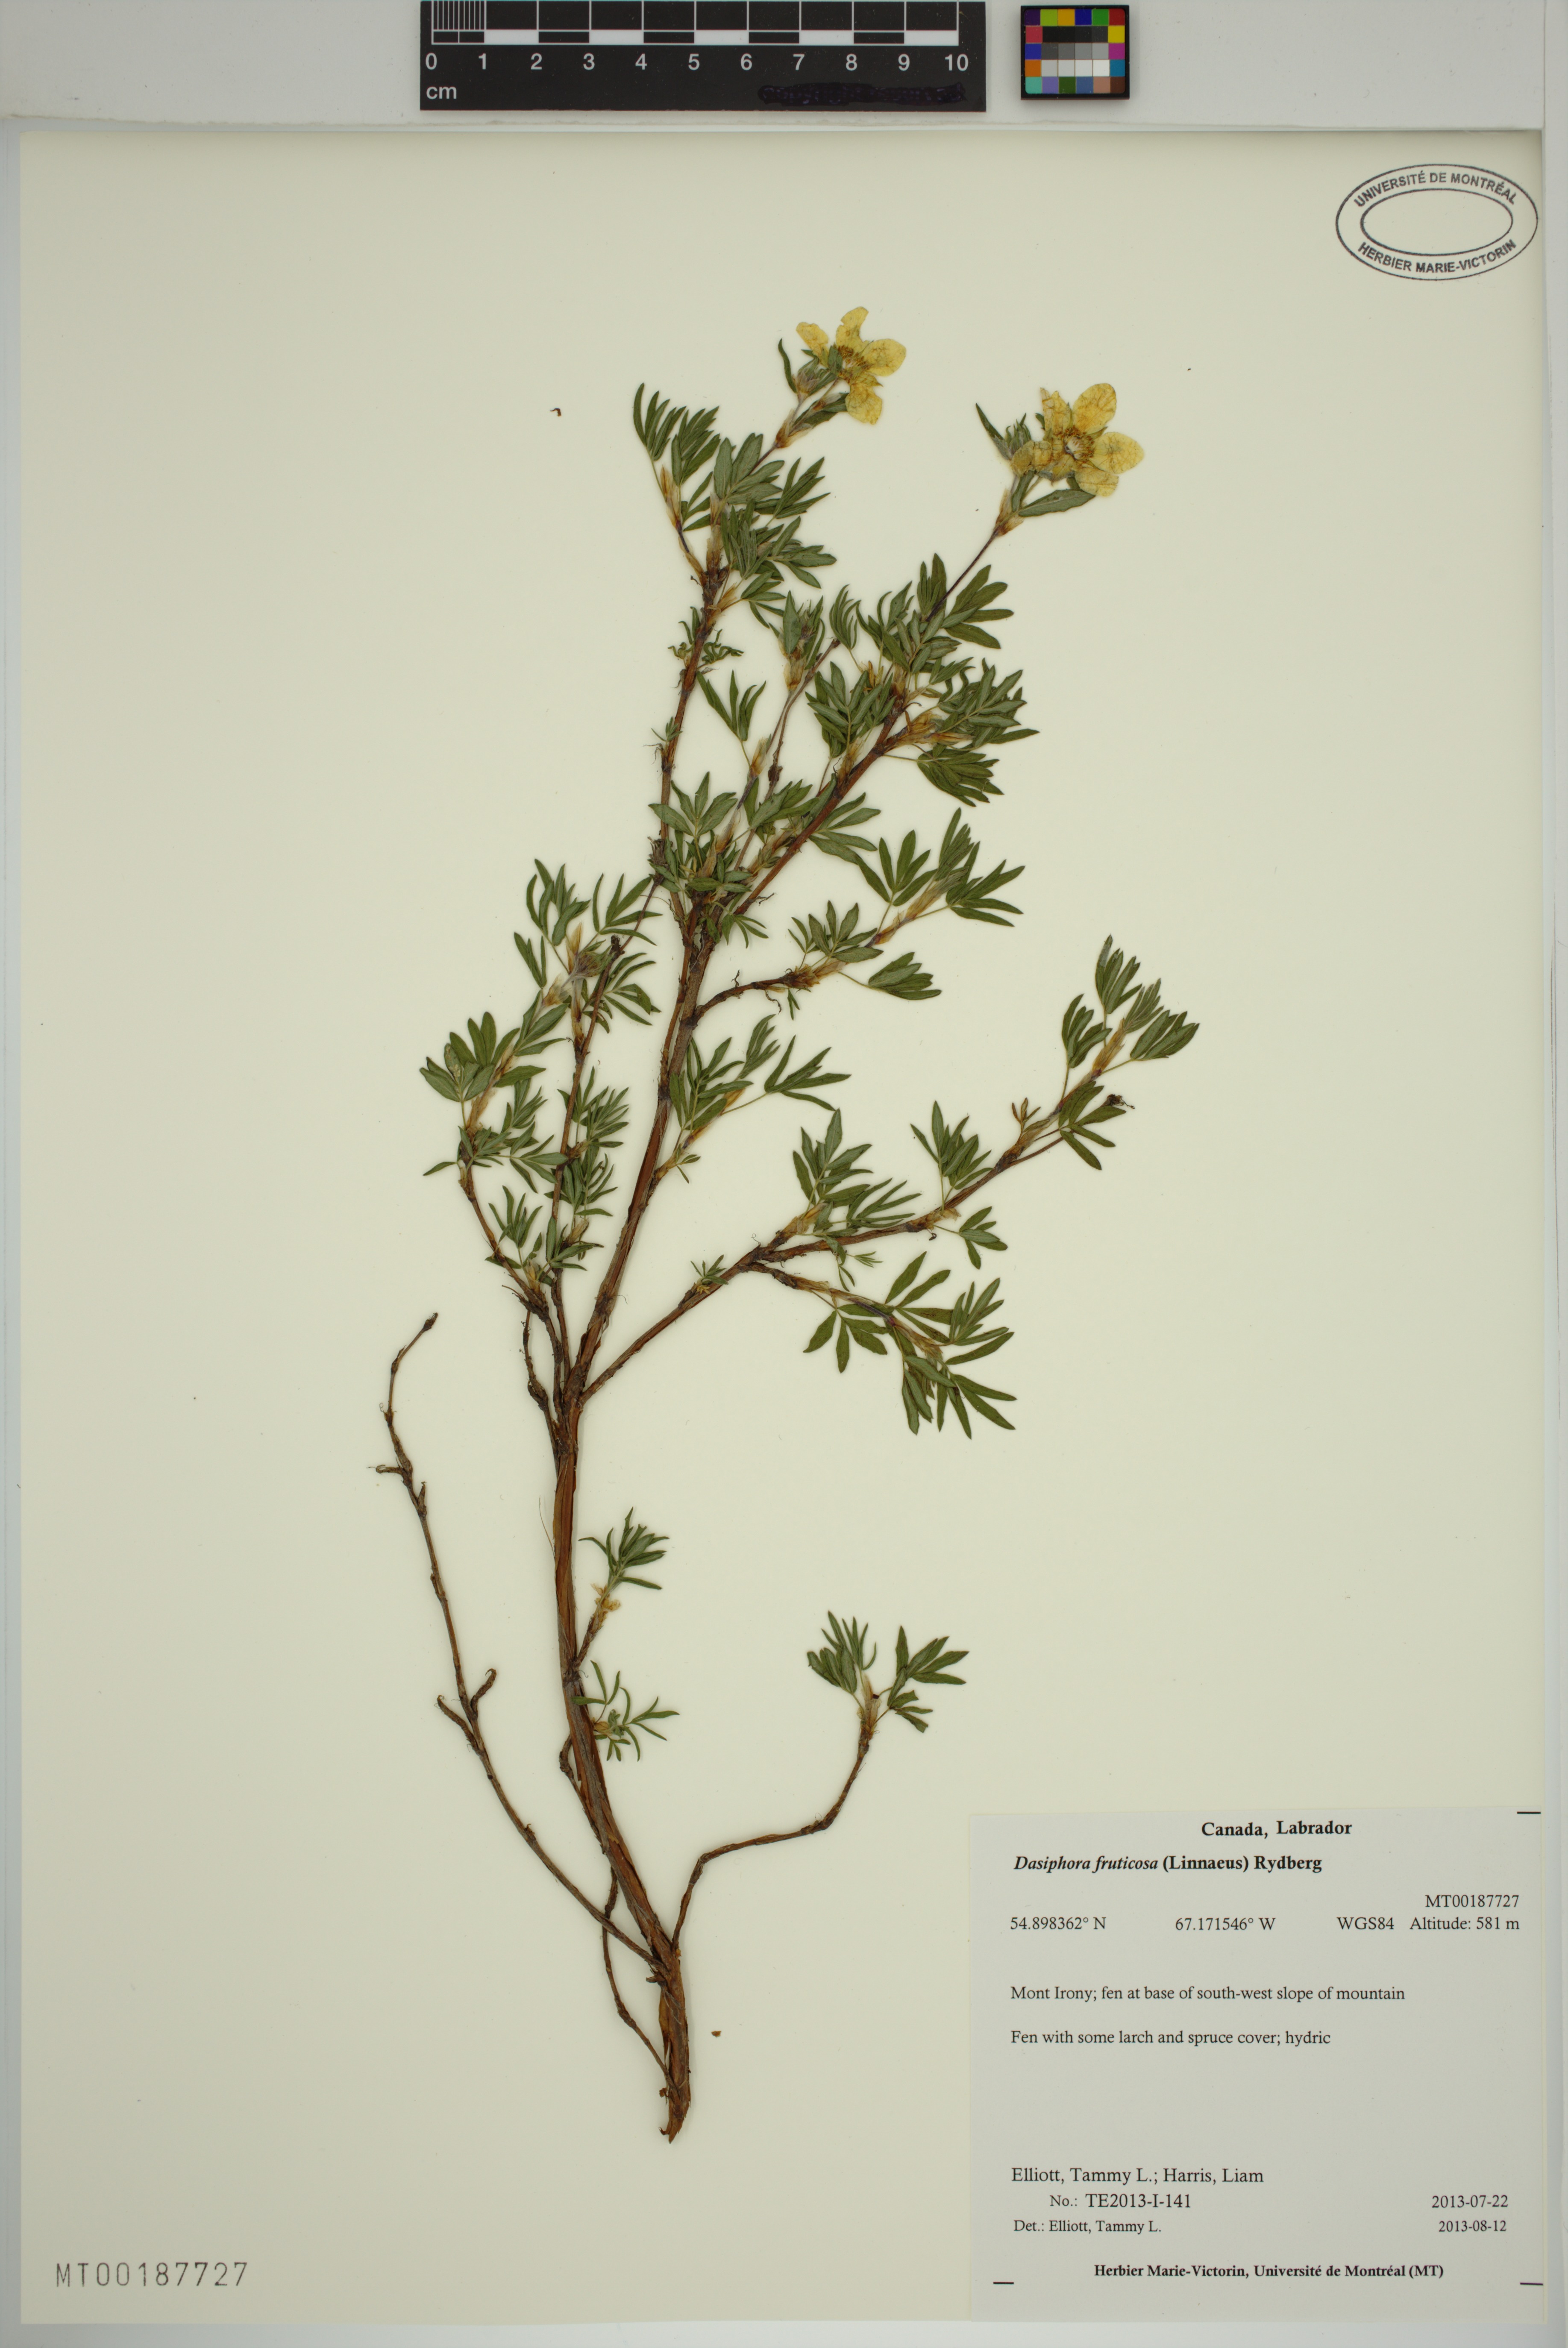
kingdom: Plantae
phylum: Tracheophyta
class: Magnoliopsida
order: Rosales
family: Rosaceae
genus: Dasiphora
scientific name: Dasiphora fruticosa
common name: Shrubby cinquefoil
